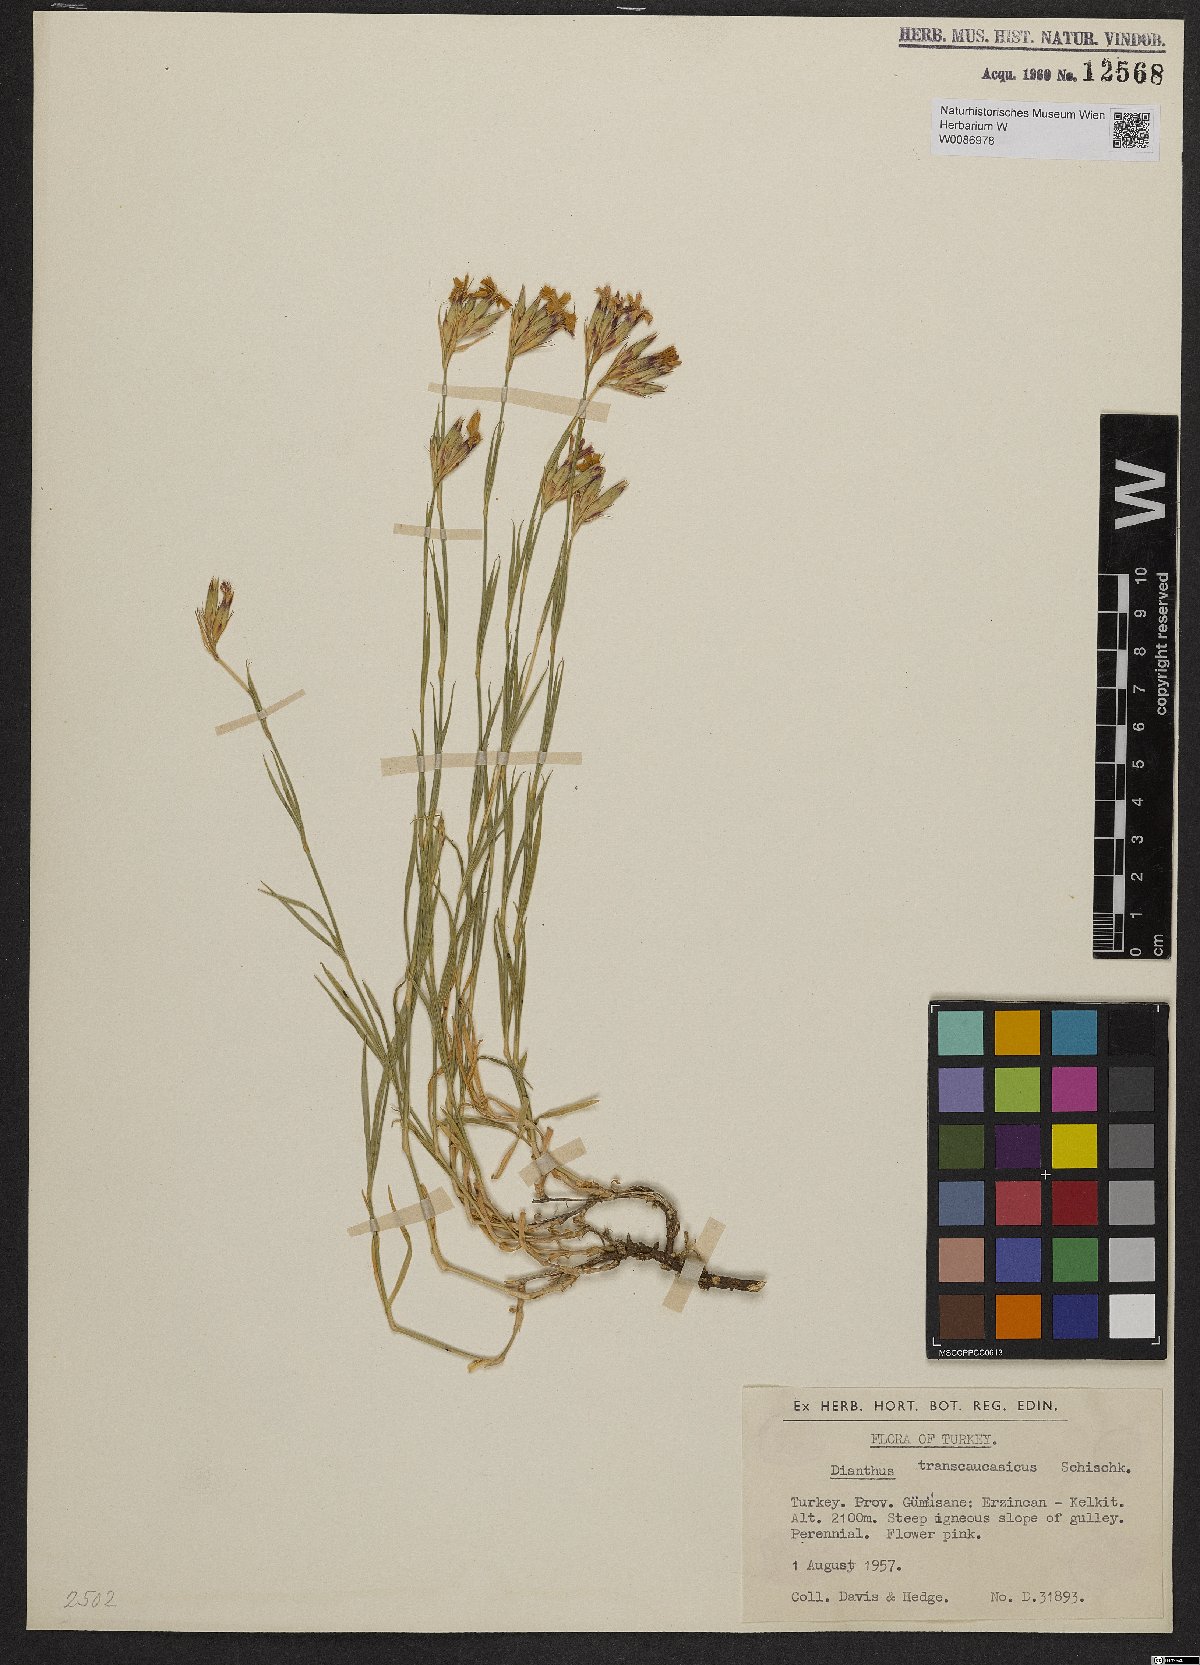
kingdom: Plantae
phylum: Tracheophyta
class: Magnoliopsida
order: Caryophyllales
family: Caryophyllaceae
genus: Dianthus
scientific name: Dianthus masmenaeus
